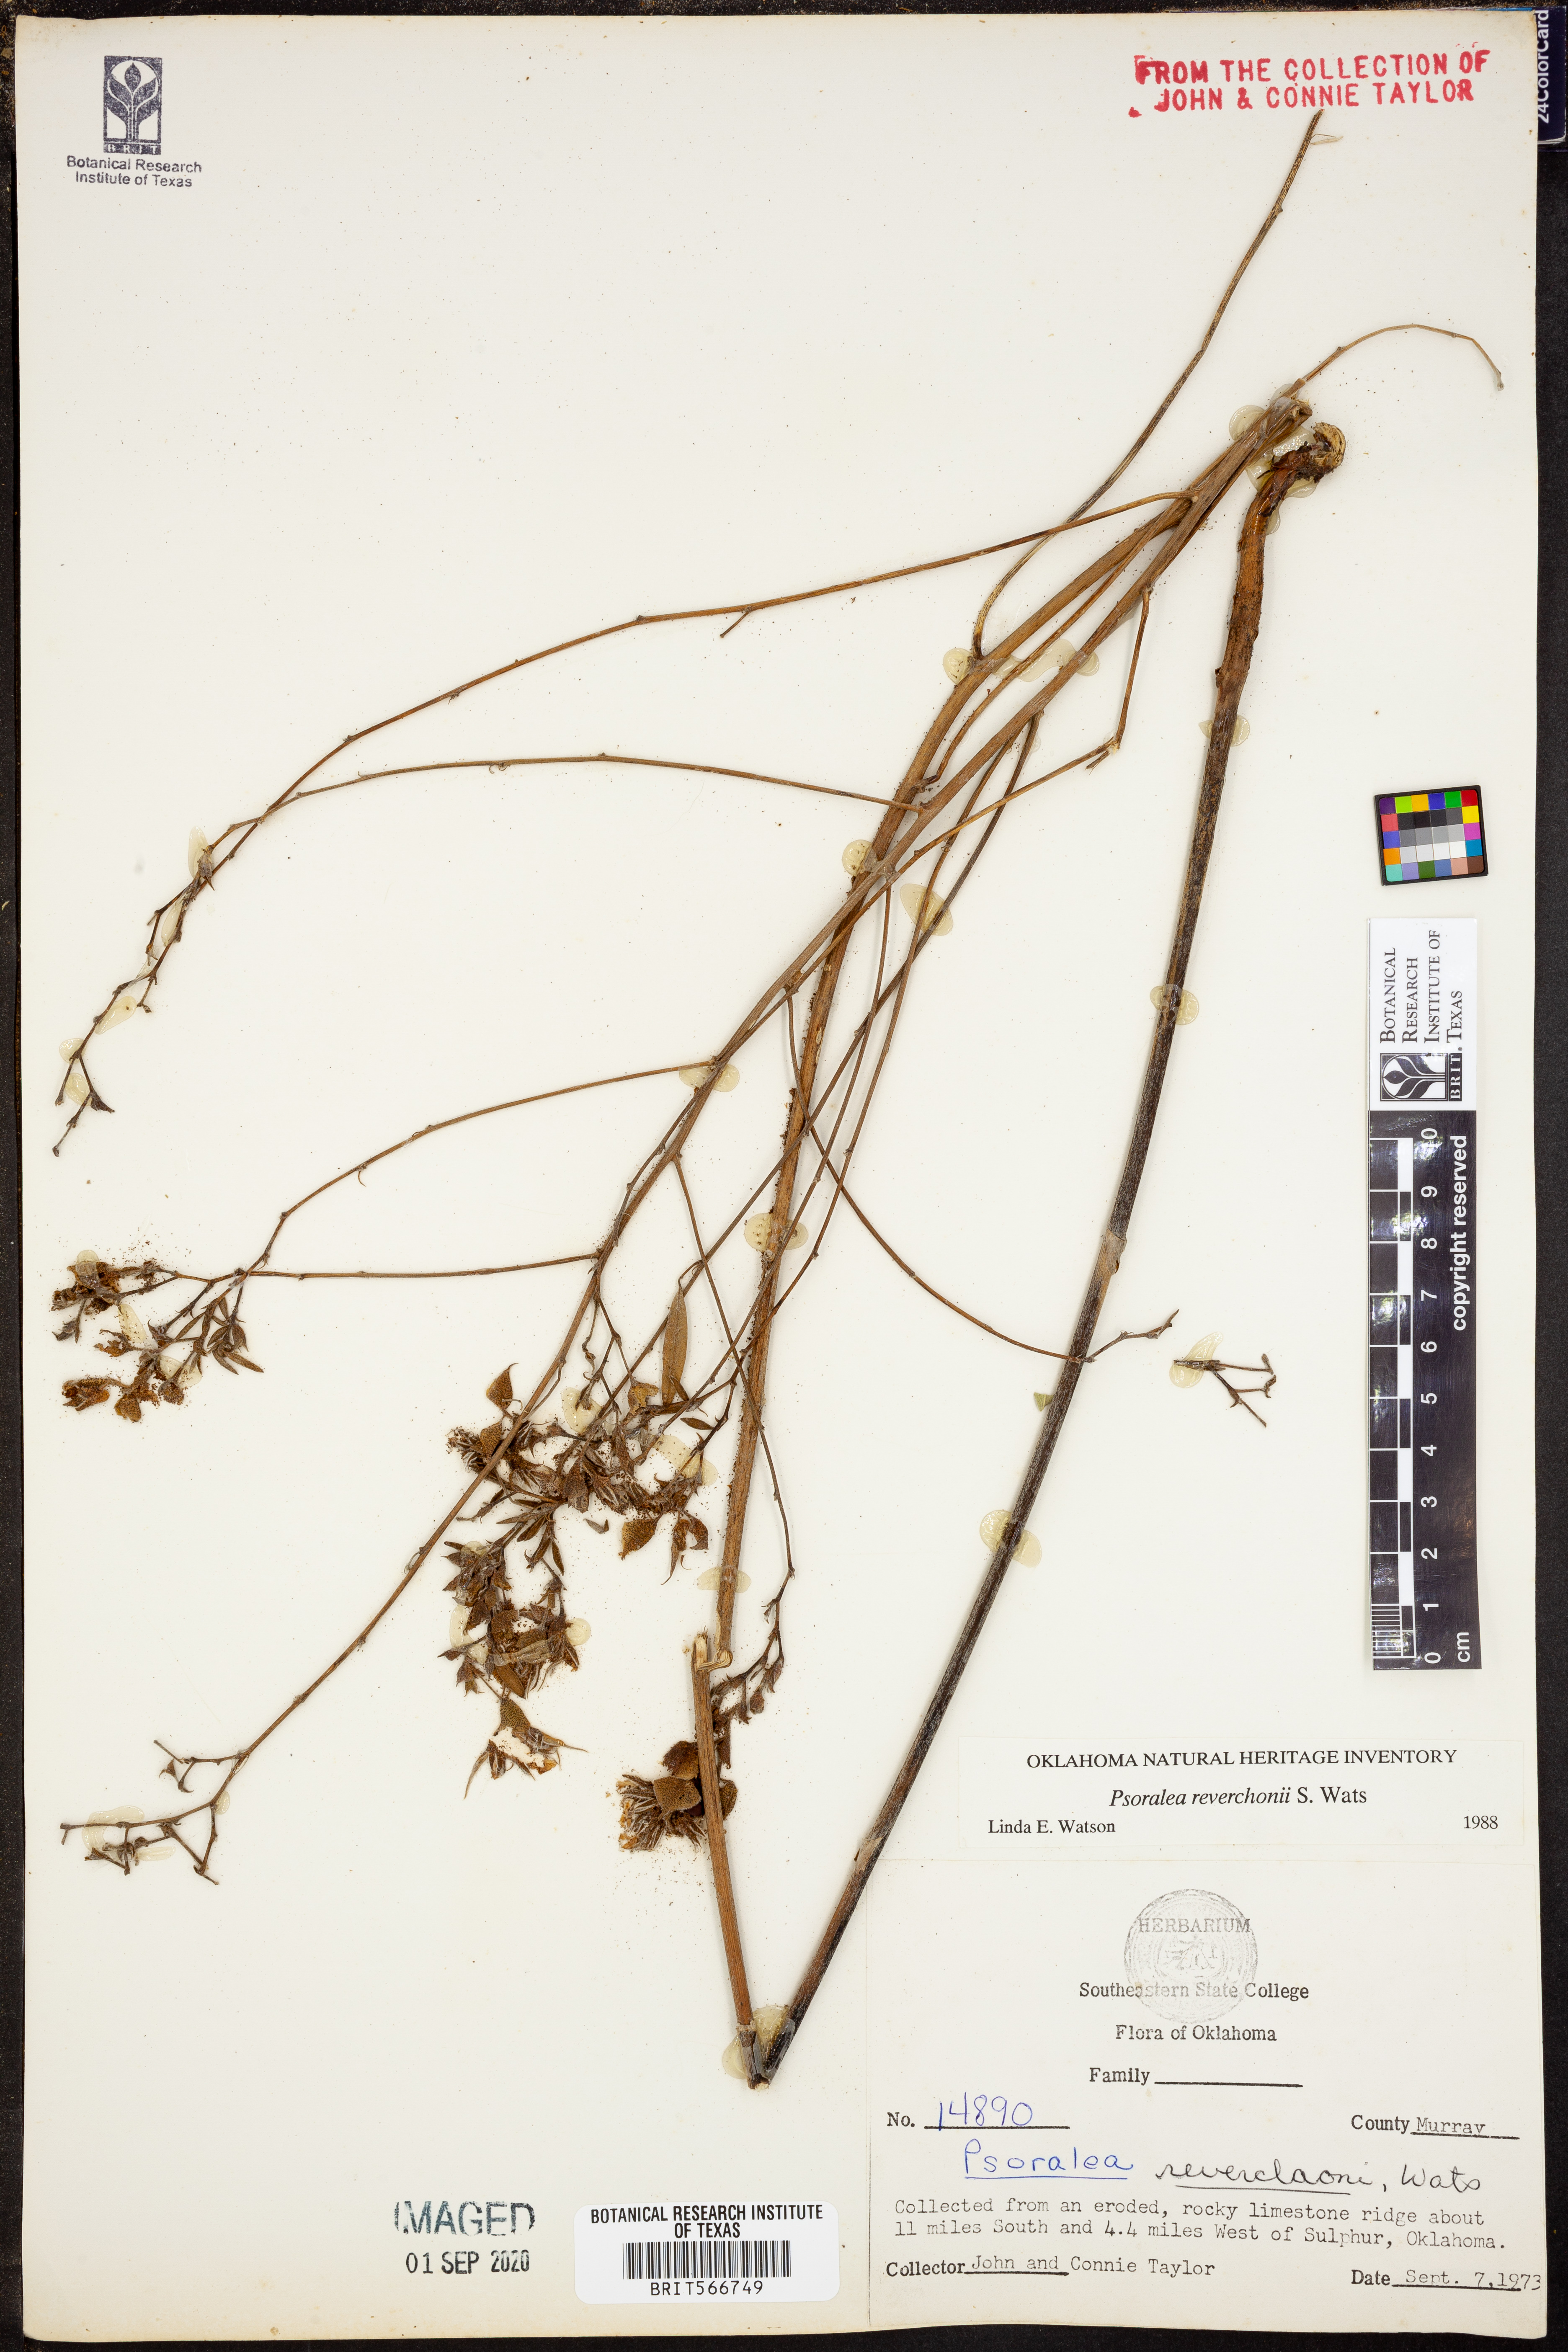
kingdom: Plantae
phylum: Tracheophyta
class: Magnoliopsida
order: Fabales
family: Fabaceae
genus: Pediomelum
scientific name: Pediomelum reverchonii
